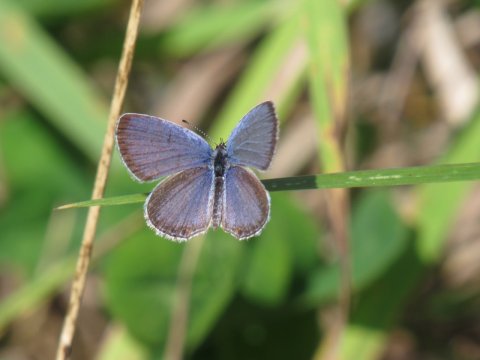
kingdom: Animalia
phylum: Arthropoda
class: Insecta
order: Lepidoptera
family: Lycaenidae
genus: Elkalyce
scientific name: Elkalyce comyntas
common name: Eastern Tailed-Blue
